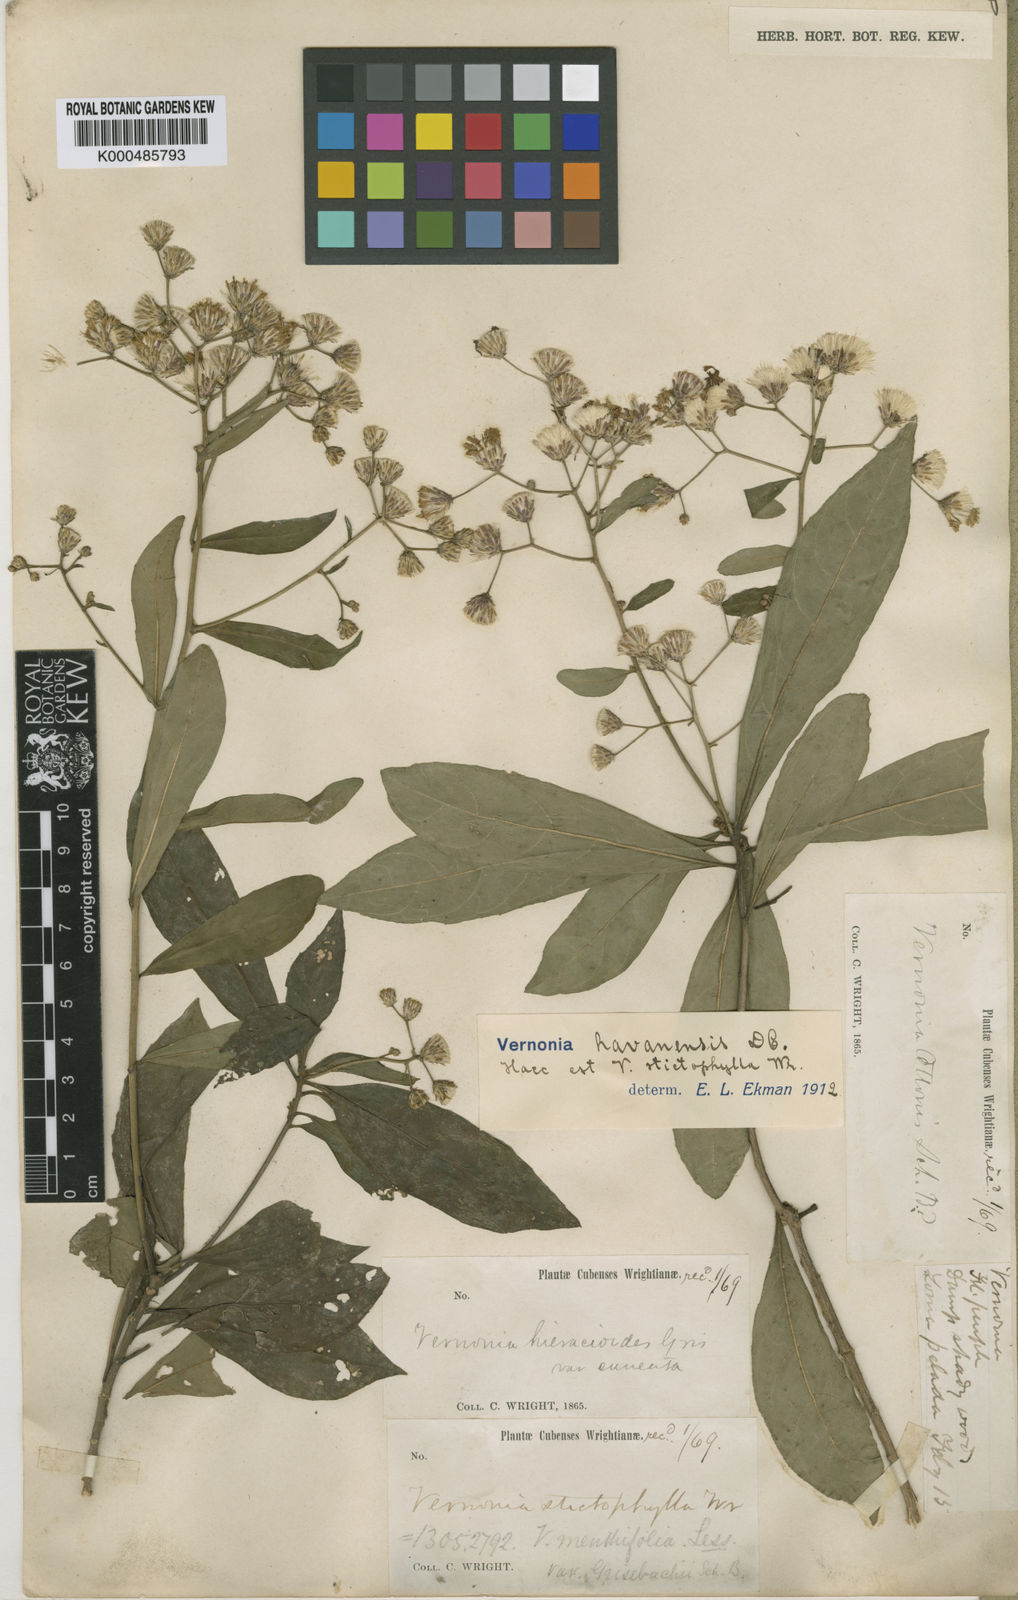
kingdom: Plantae
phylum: Tracheophyta
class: Magnoliopsida
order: Asterales
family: Asteraceae
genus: Vernonanthura
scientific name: Vernonanthura havanensis
